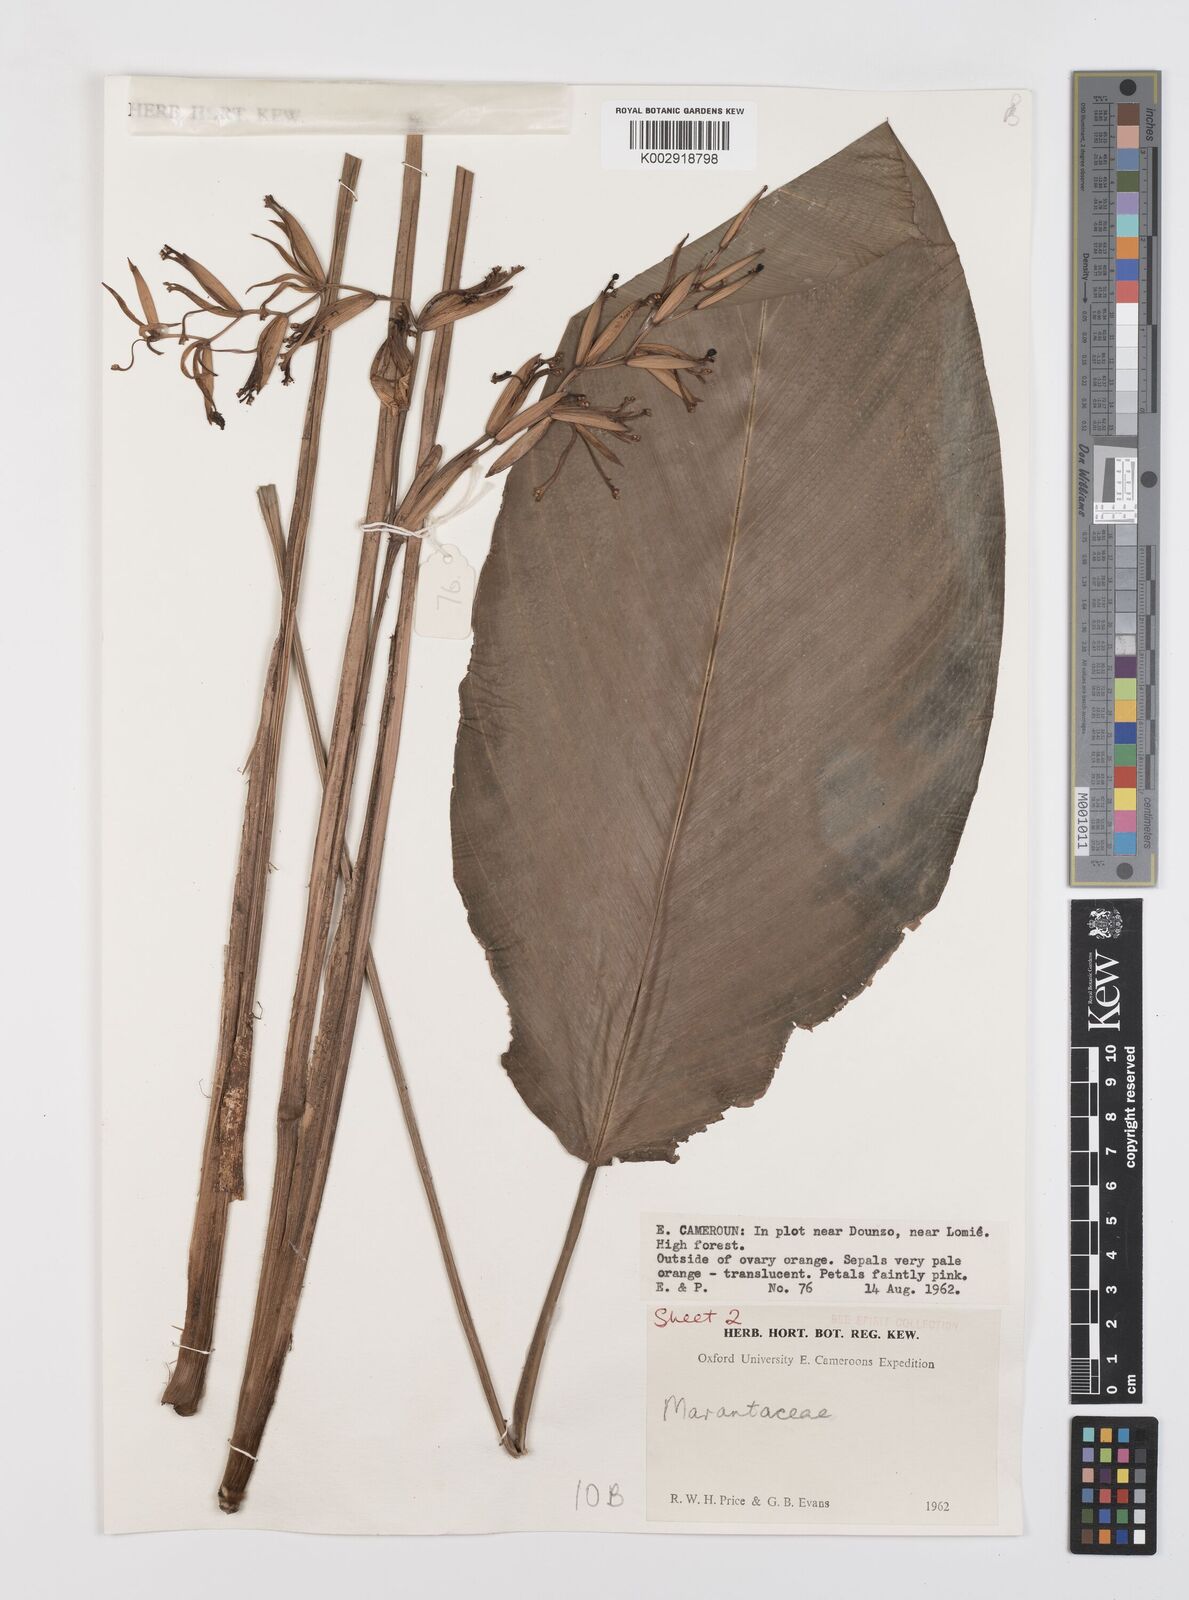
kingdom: Plantae
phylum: Tracheophyta
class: Liliopsida
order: Zingiberales
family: Marantaceae
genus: Sarcophrynium
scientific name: Sarcophrynium
